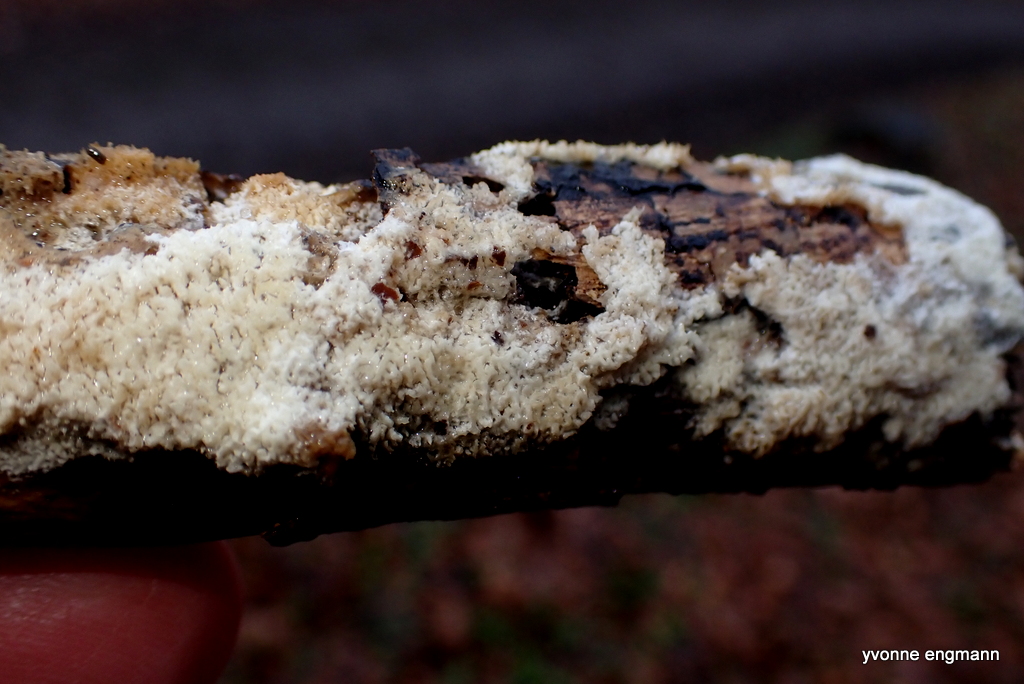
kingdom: Fungi
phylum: Basidiomycota
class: Agaricomycetes
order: Hymenochaetales
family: Schizoporaceae
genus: Xylodon
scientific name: Xylodon
